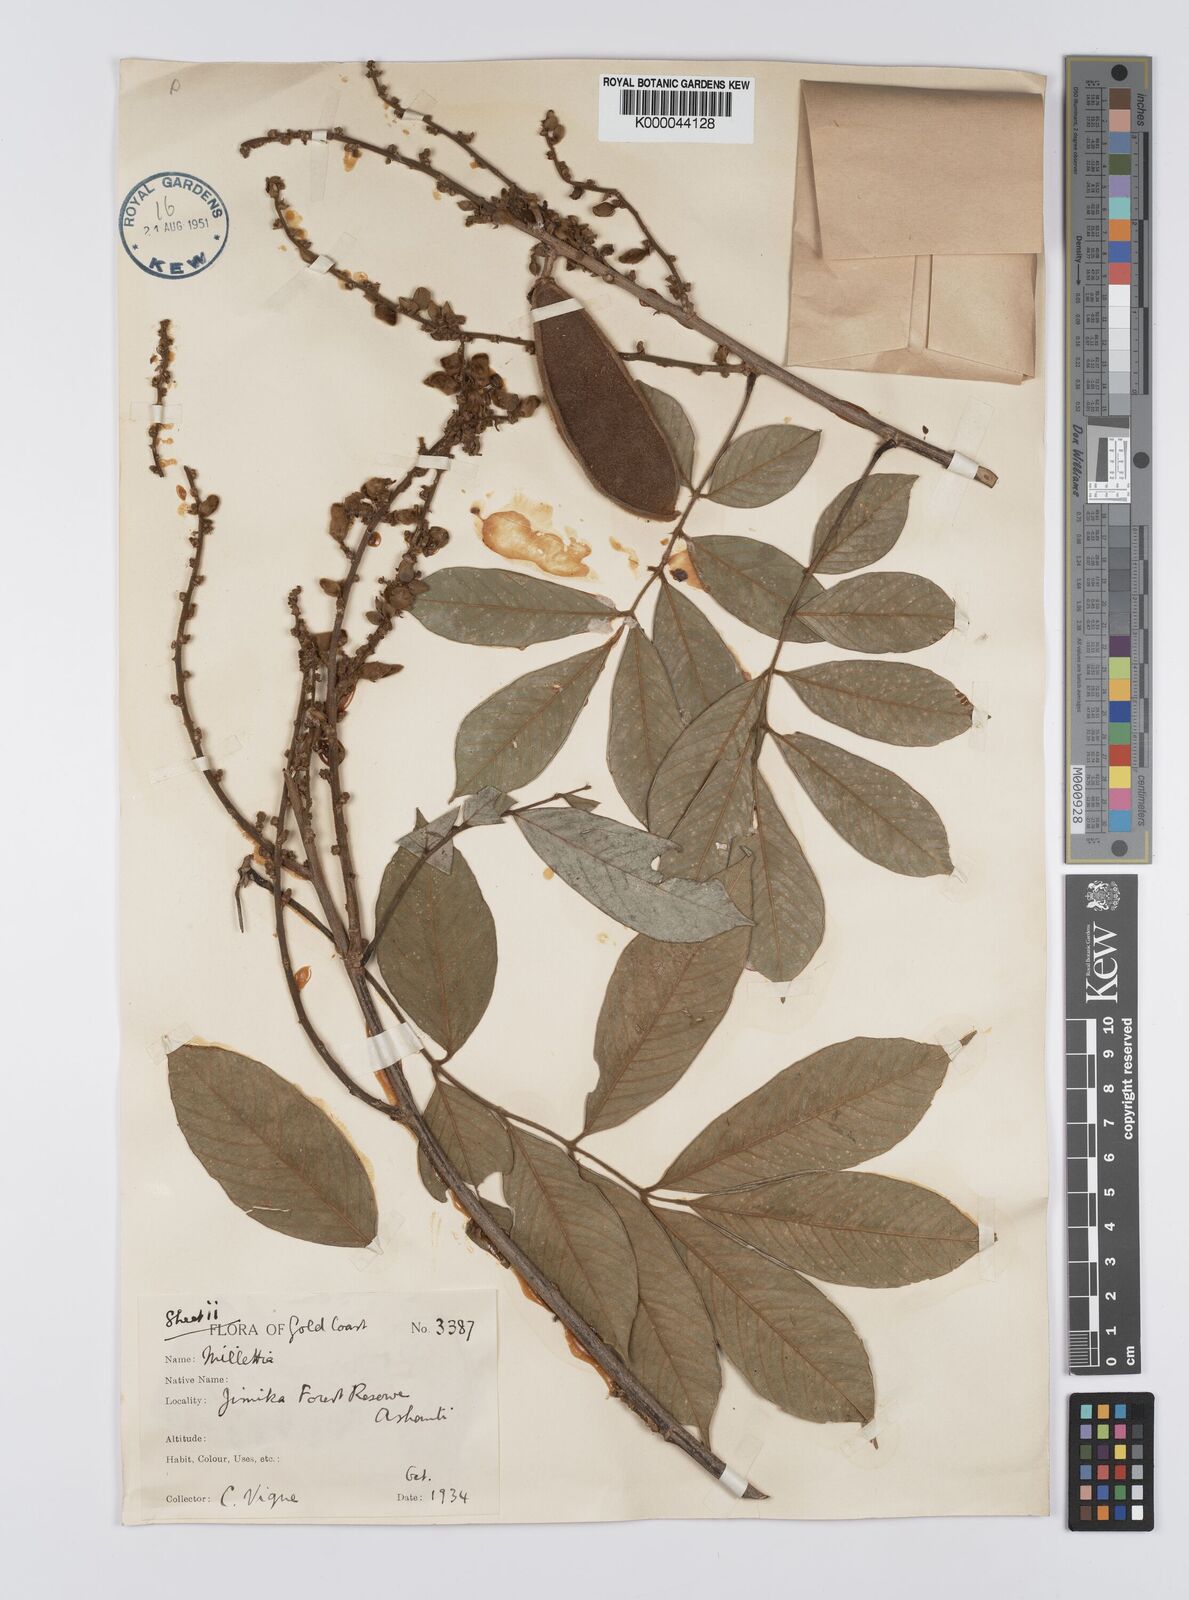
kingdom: Plantae
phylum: Tracheophyta
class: Magnoliopsida
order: Fabales
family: Fabaceae
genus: Platysepalum
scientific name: Platysepalum hirsutum
